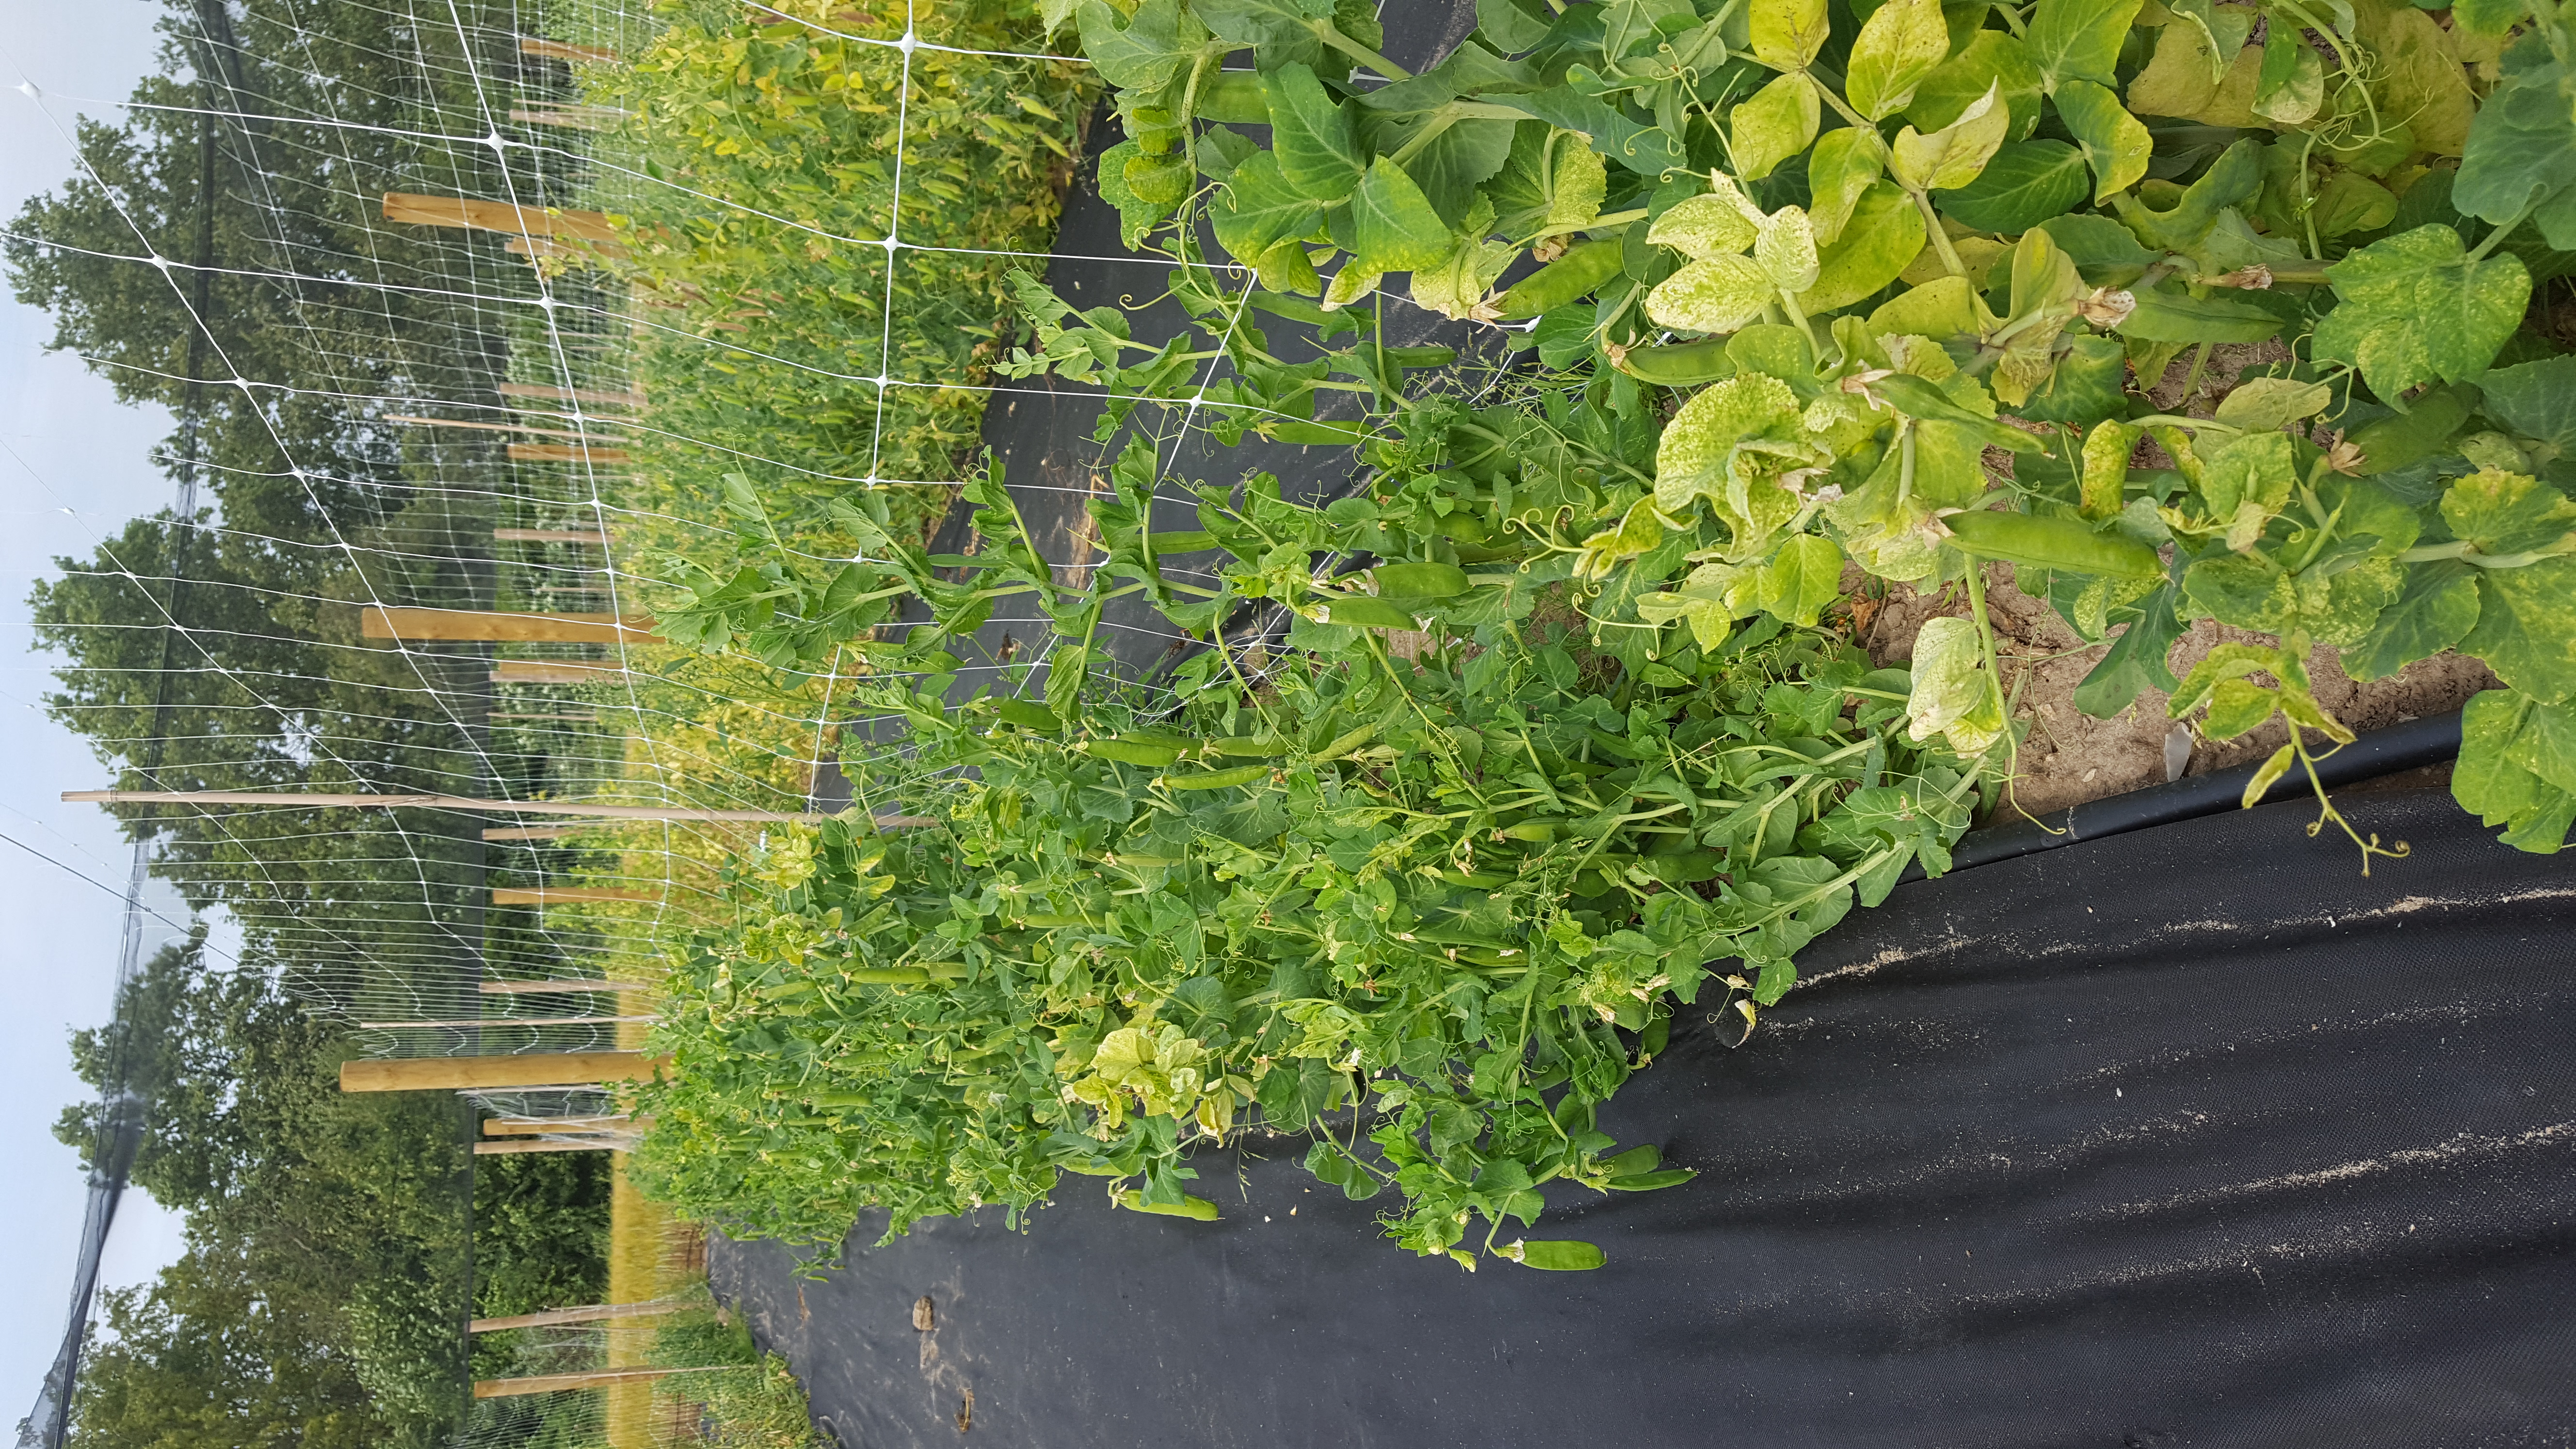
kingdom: Plantae
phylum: Tracheophyta
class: Magnoliopsida
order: Fabales
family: Fabaceae
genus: Lathyrus
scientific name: Lathyrus oleraceus
